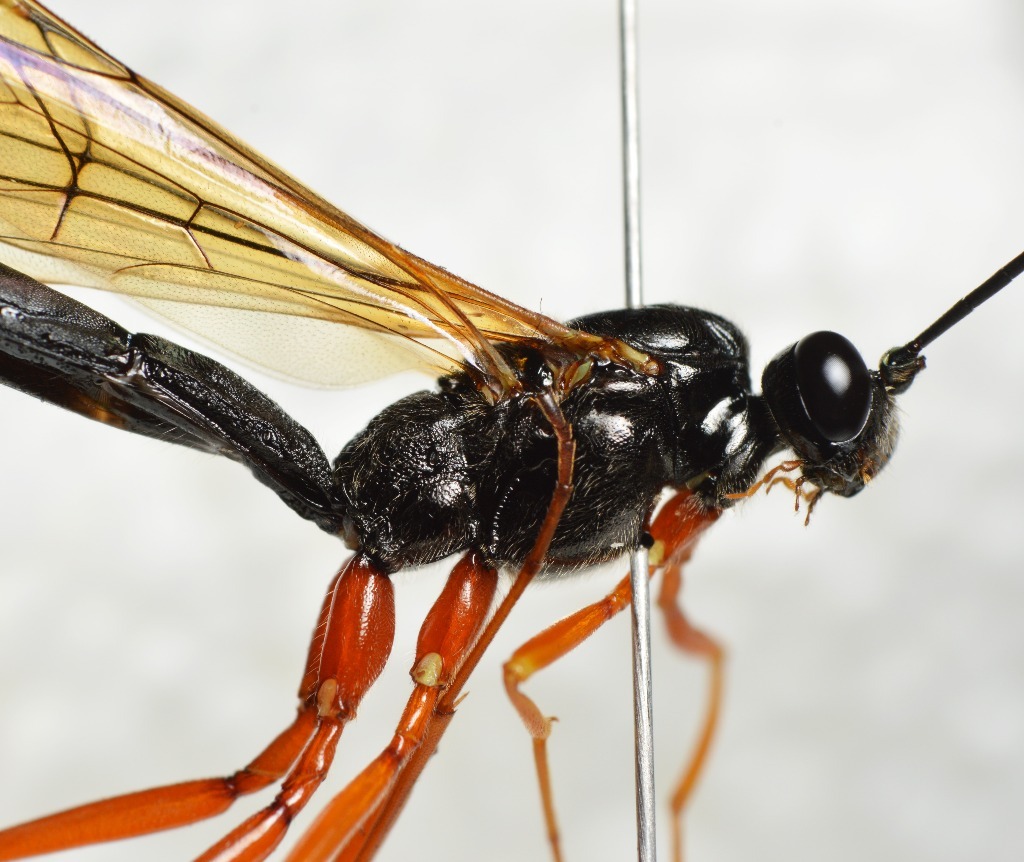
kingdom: Animalia
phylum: Arthropoda
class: Insecta
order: Hymenoptera
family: Ichneumonidae
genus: Dolichomitus
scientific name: Dolichomitus mesocentrus
